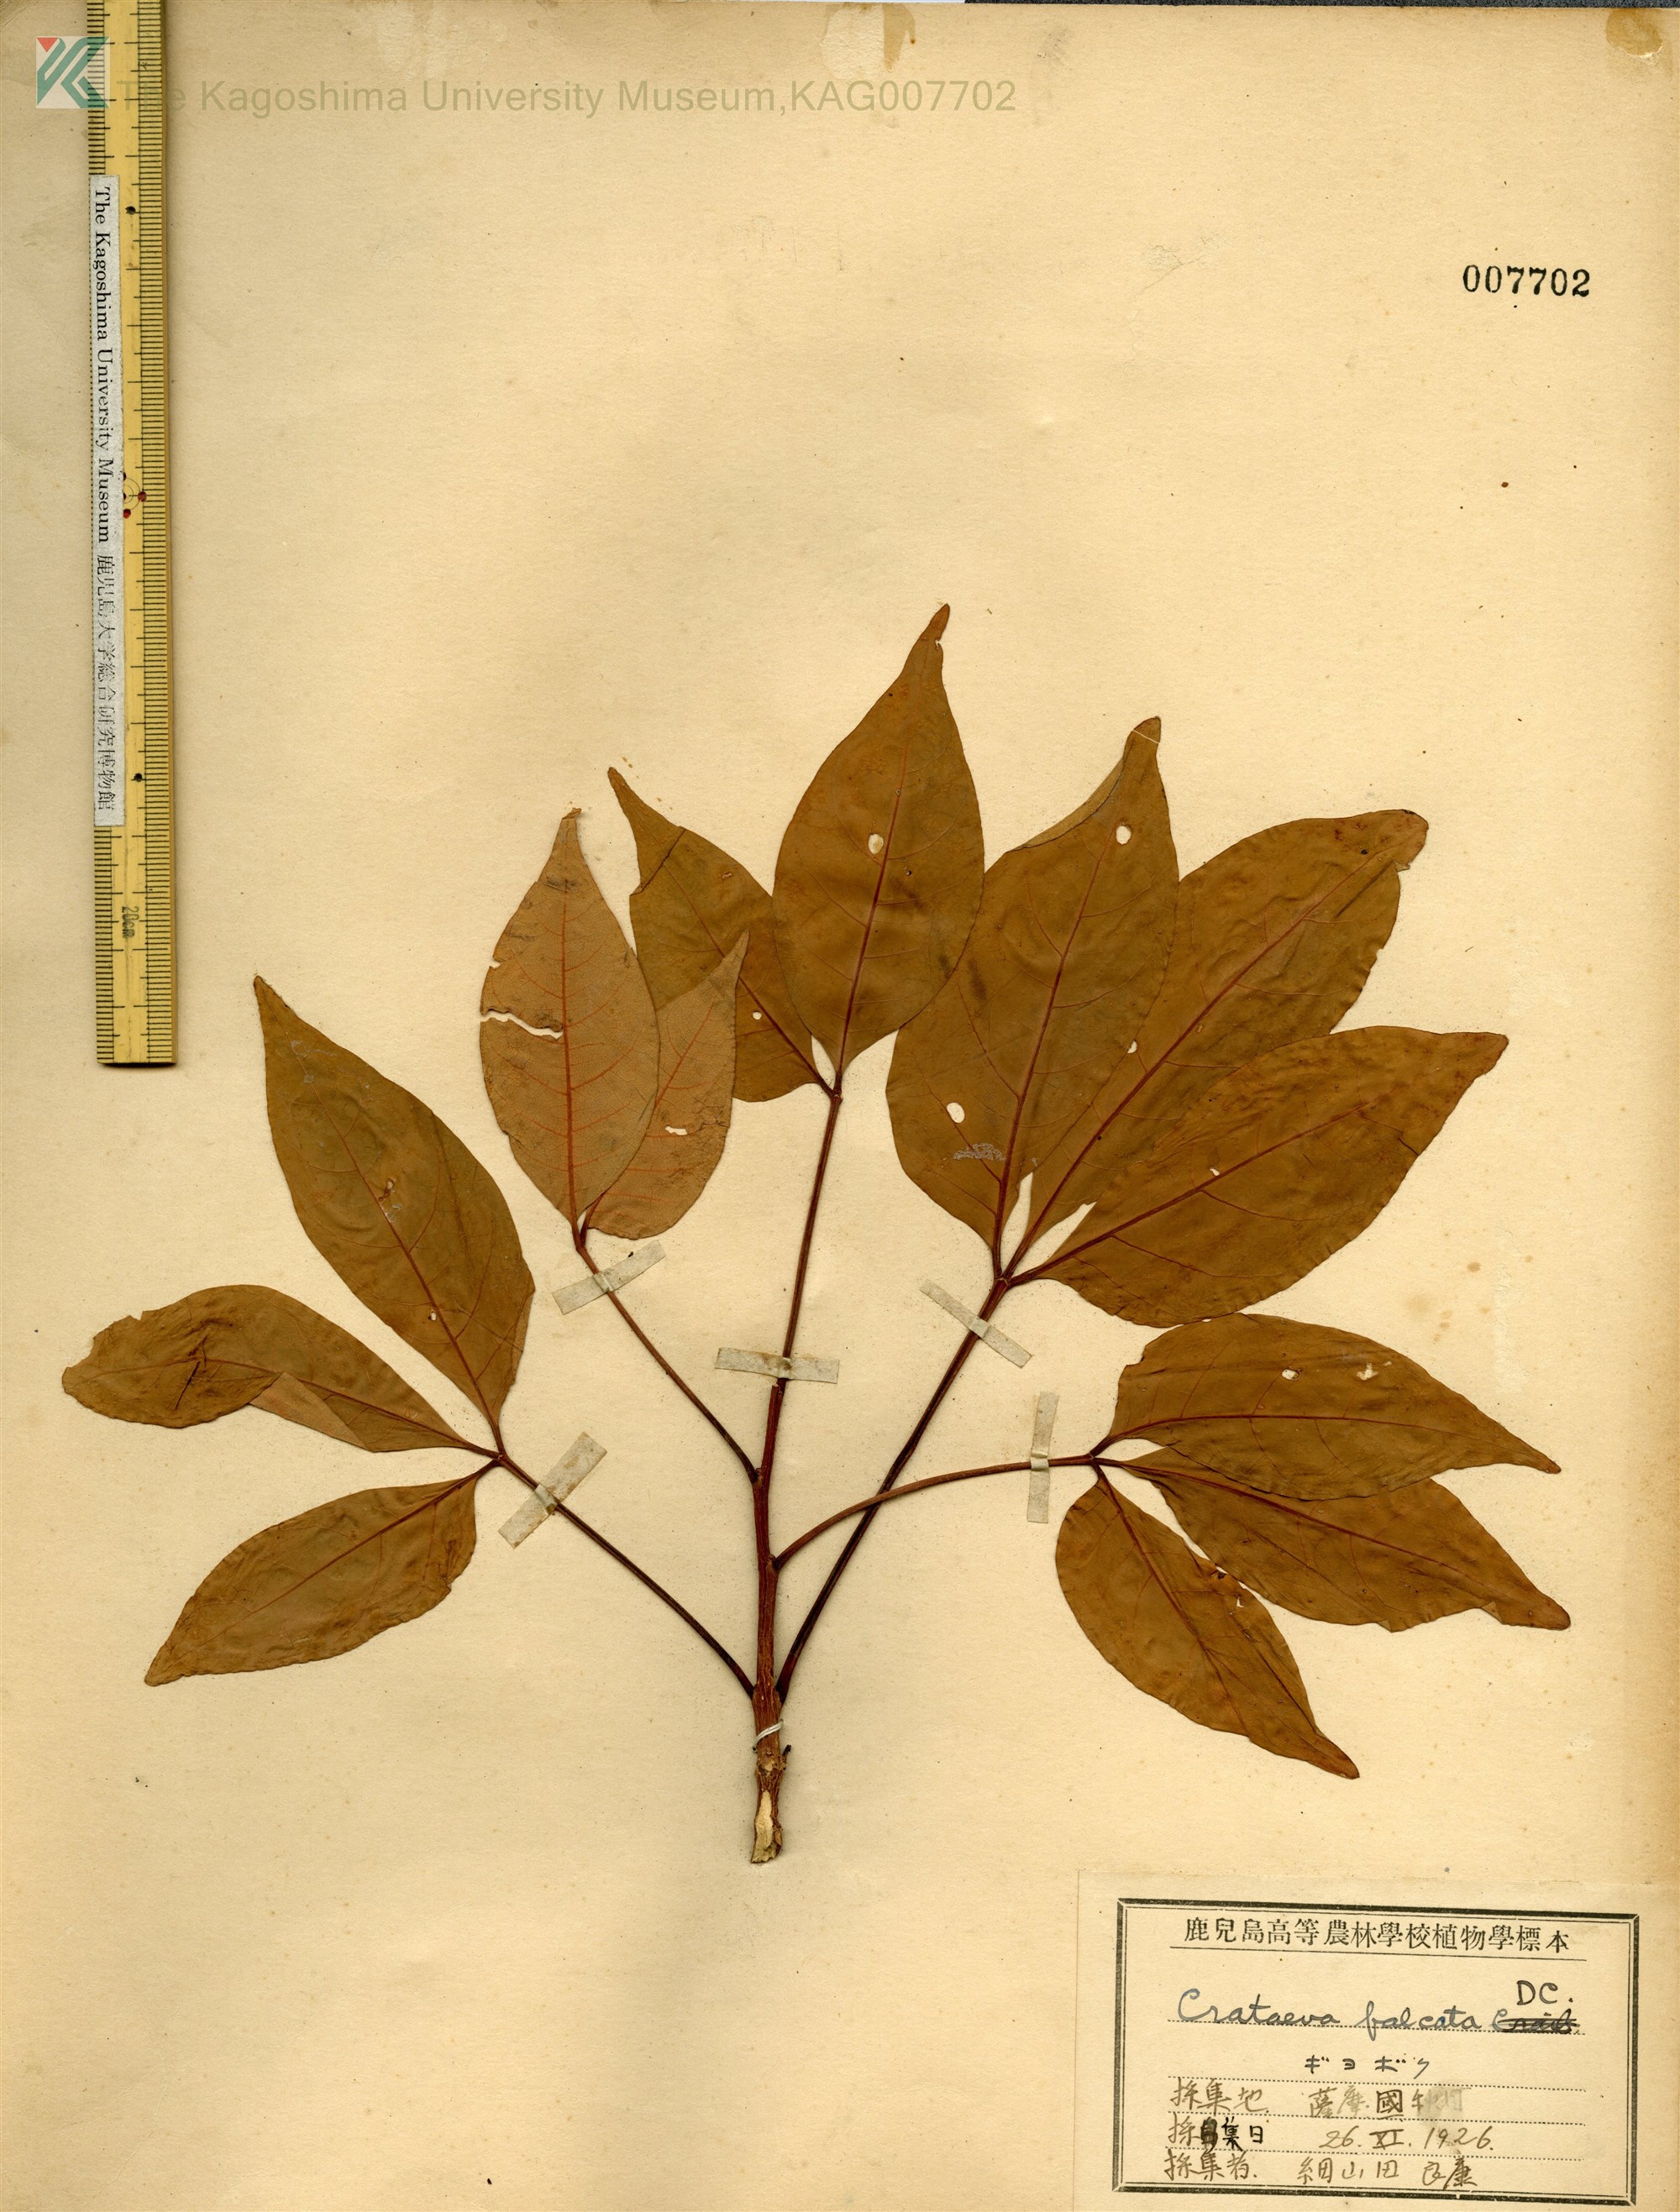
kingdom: Plantae
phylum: Tracheophyta
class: Magnoliopsida
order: Brassicales
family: Capparaceae
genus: Crateva
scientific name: Crateva formosensis
